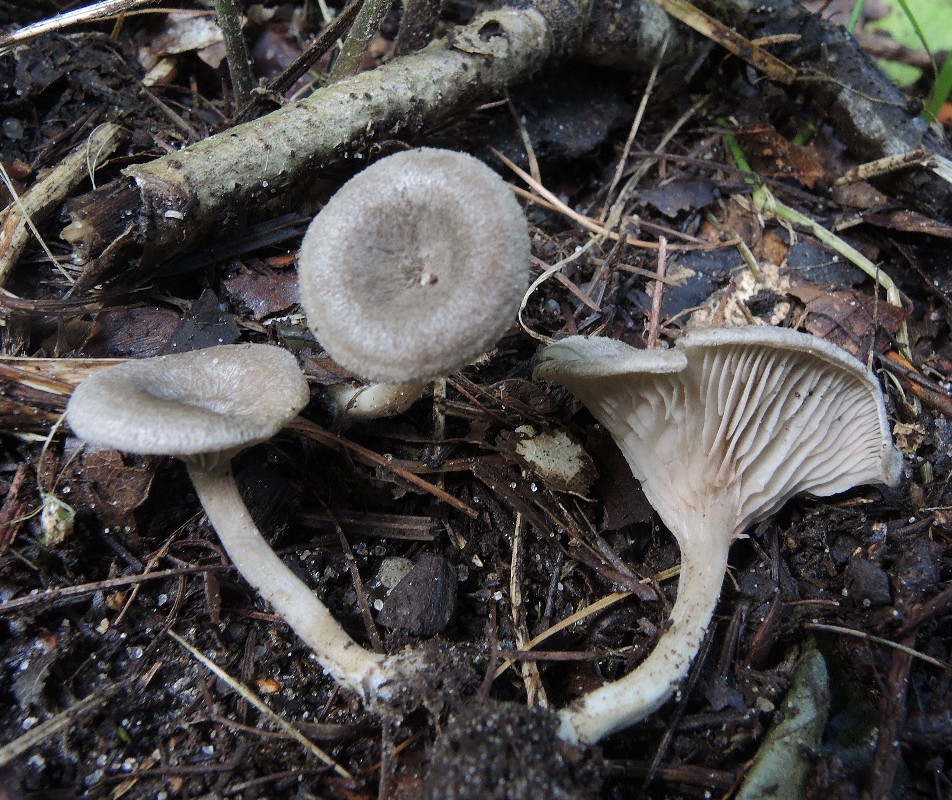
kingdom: Fungi
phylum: Basidiomycota
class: Agaricomycetes
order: Agaricales
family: Entolomataceae
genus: Entoloma
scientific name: Entoloma undatum
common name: bæltet rødblad
